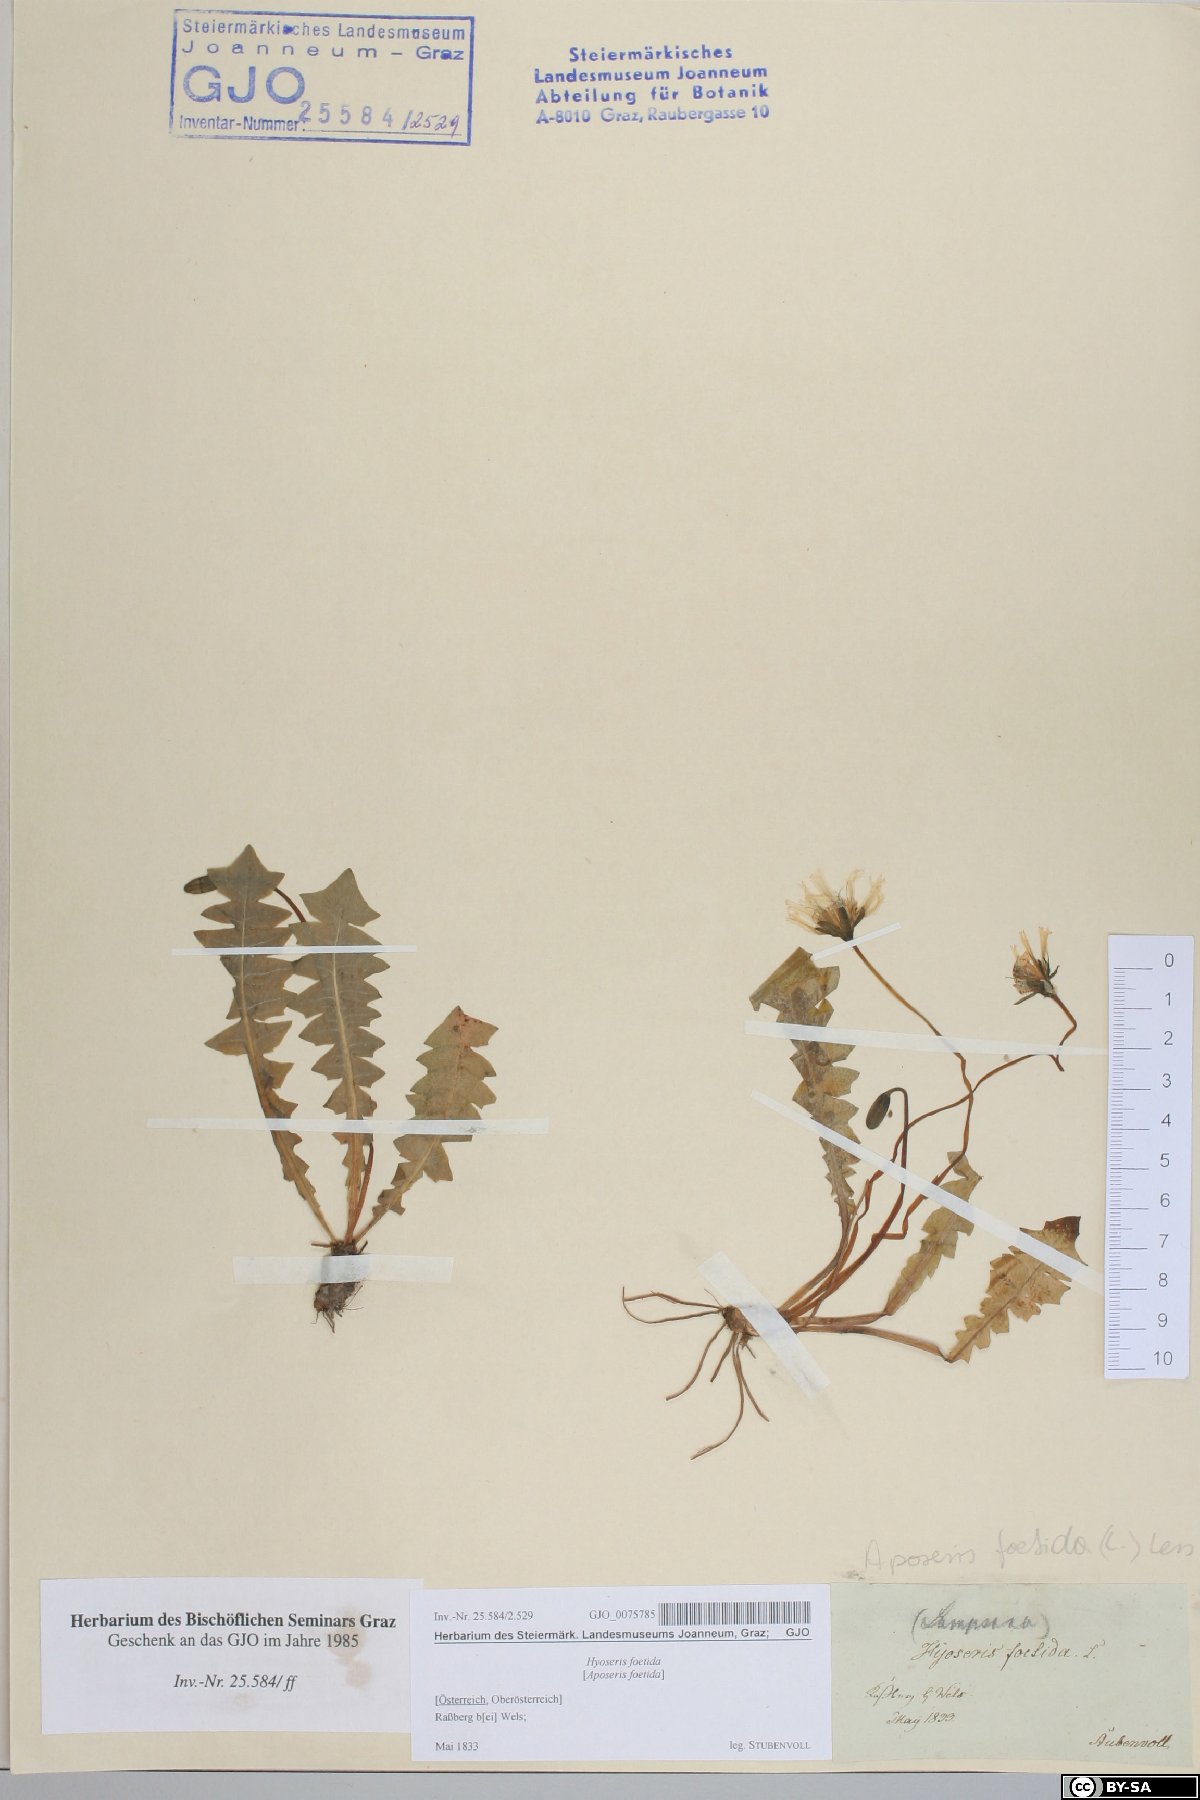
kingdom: Plantae
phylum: Tracheophyta
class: Magnoliopsida
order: Asterales
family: Asteraceae
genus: Aposeris
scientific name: Aposeris foetida
